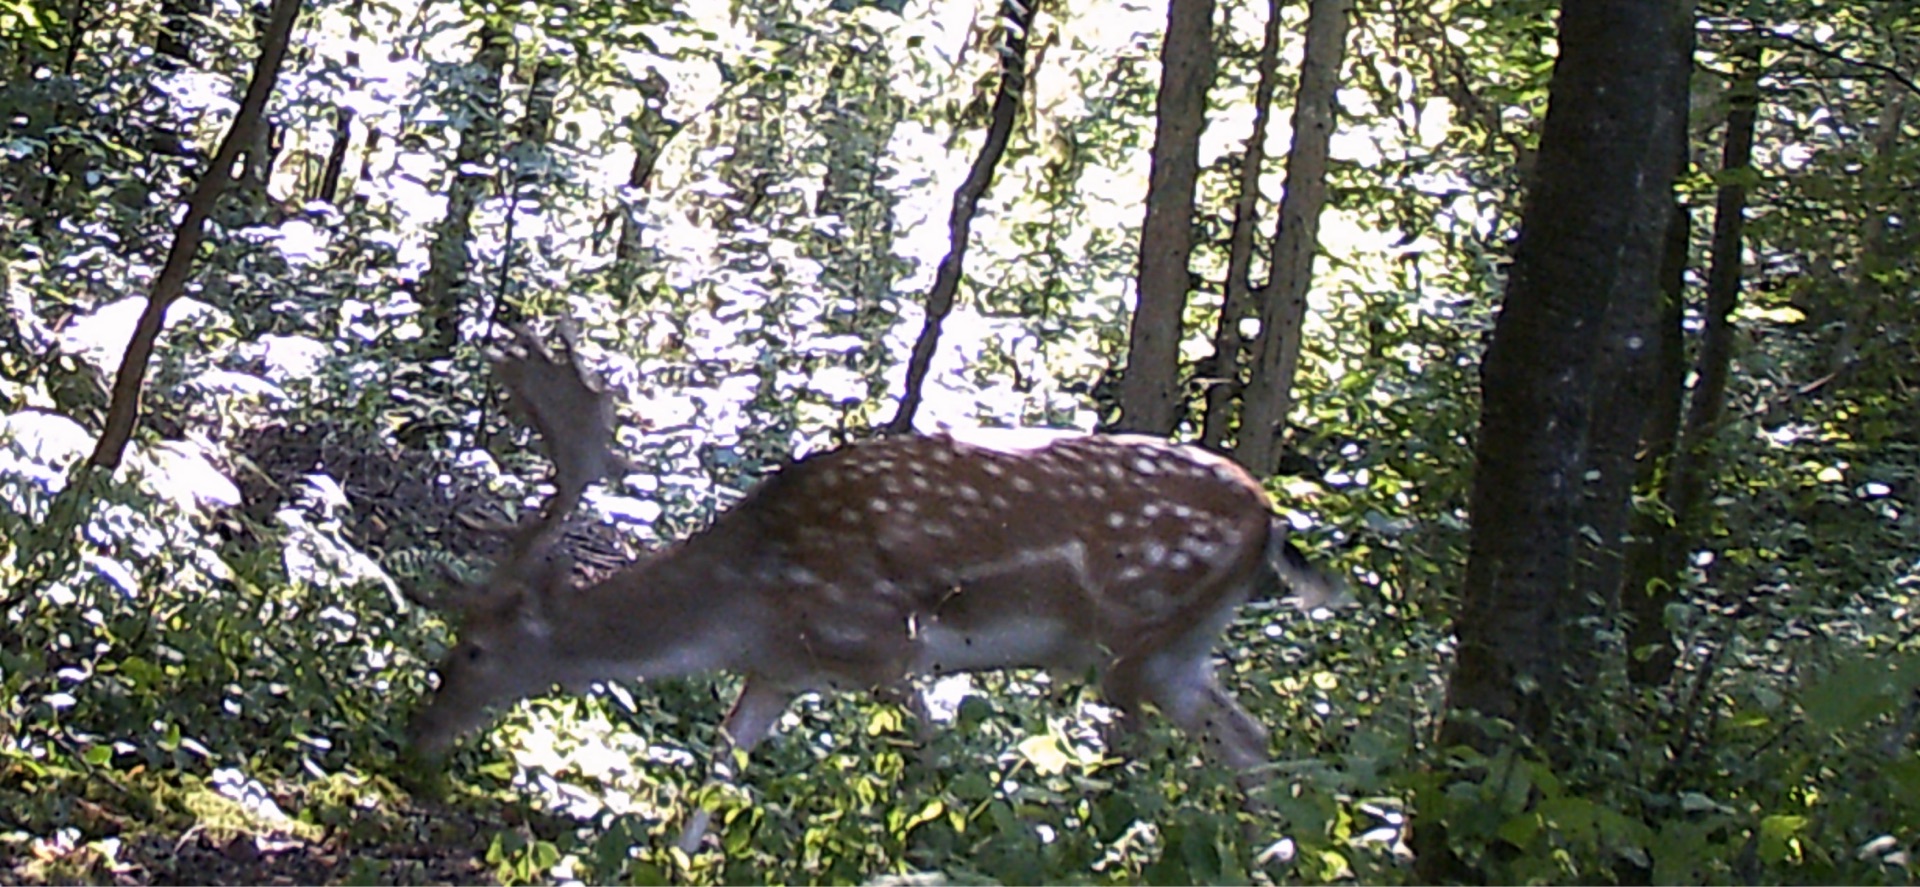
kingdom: Animalia
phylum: Chordata
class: Mammalia
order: Artiodactyla
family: Cervidae
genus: Dama
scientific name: Dama dama
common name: Dådyr
